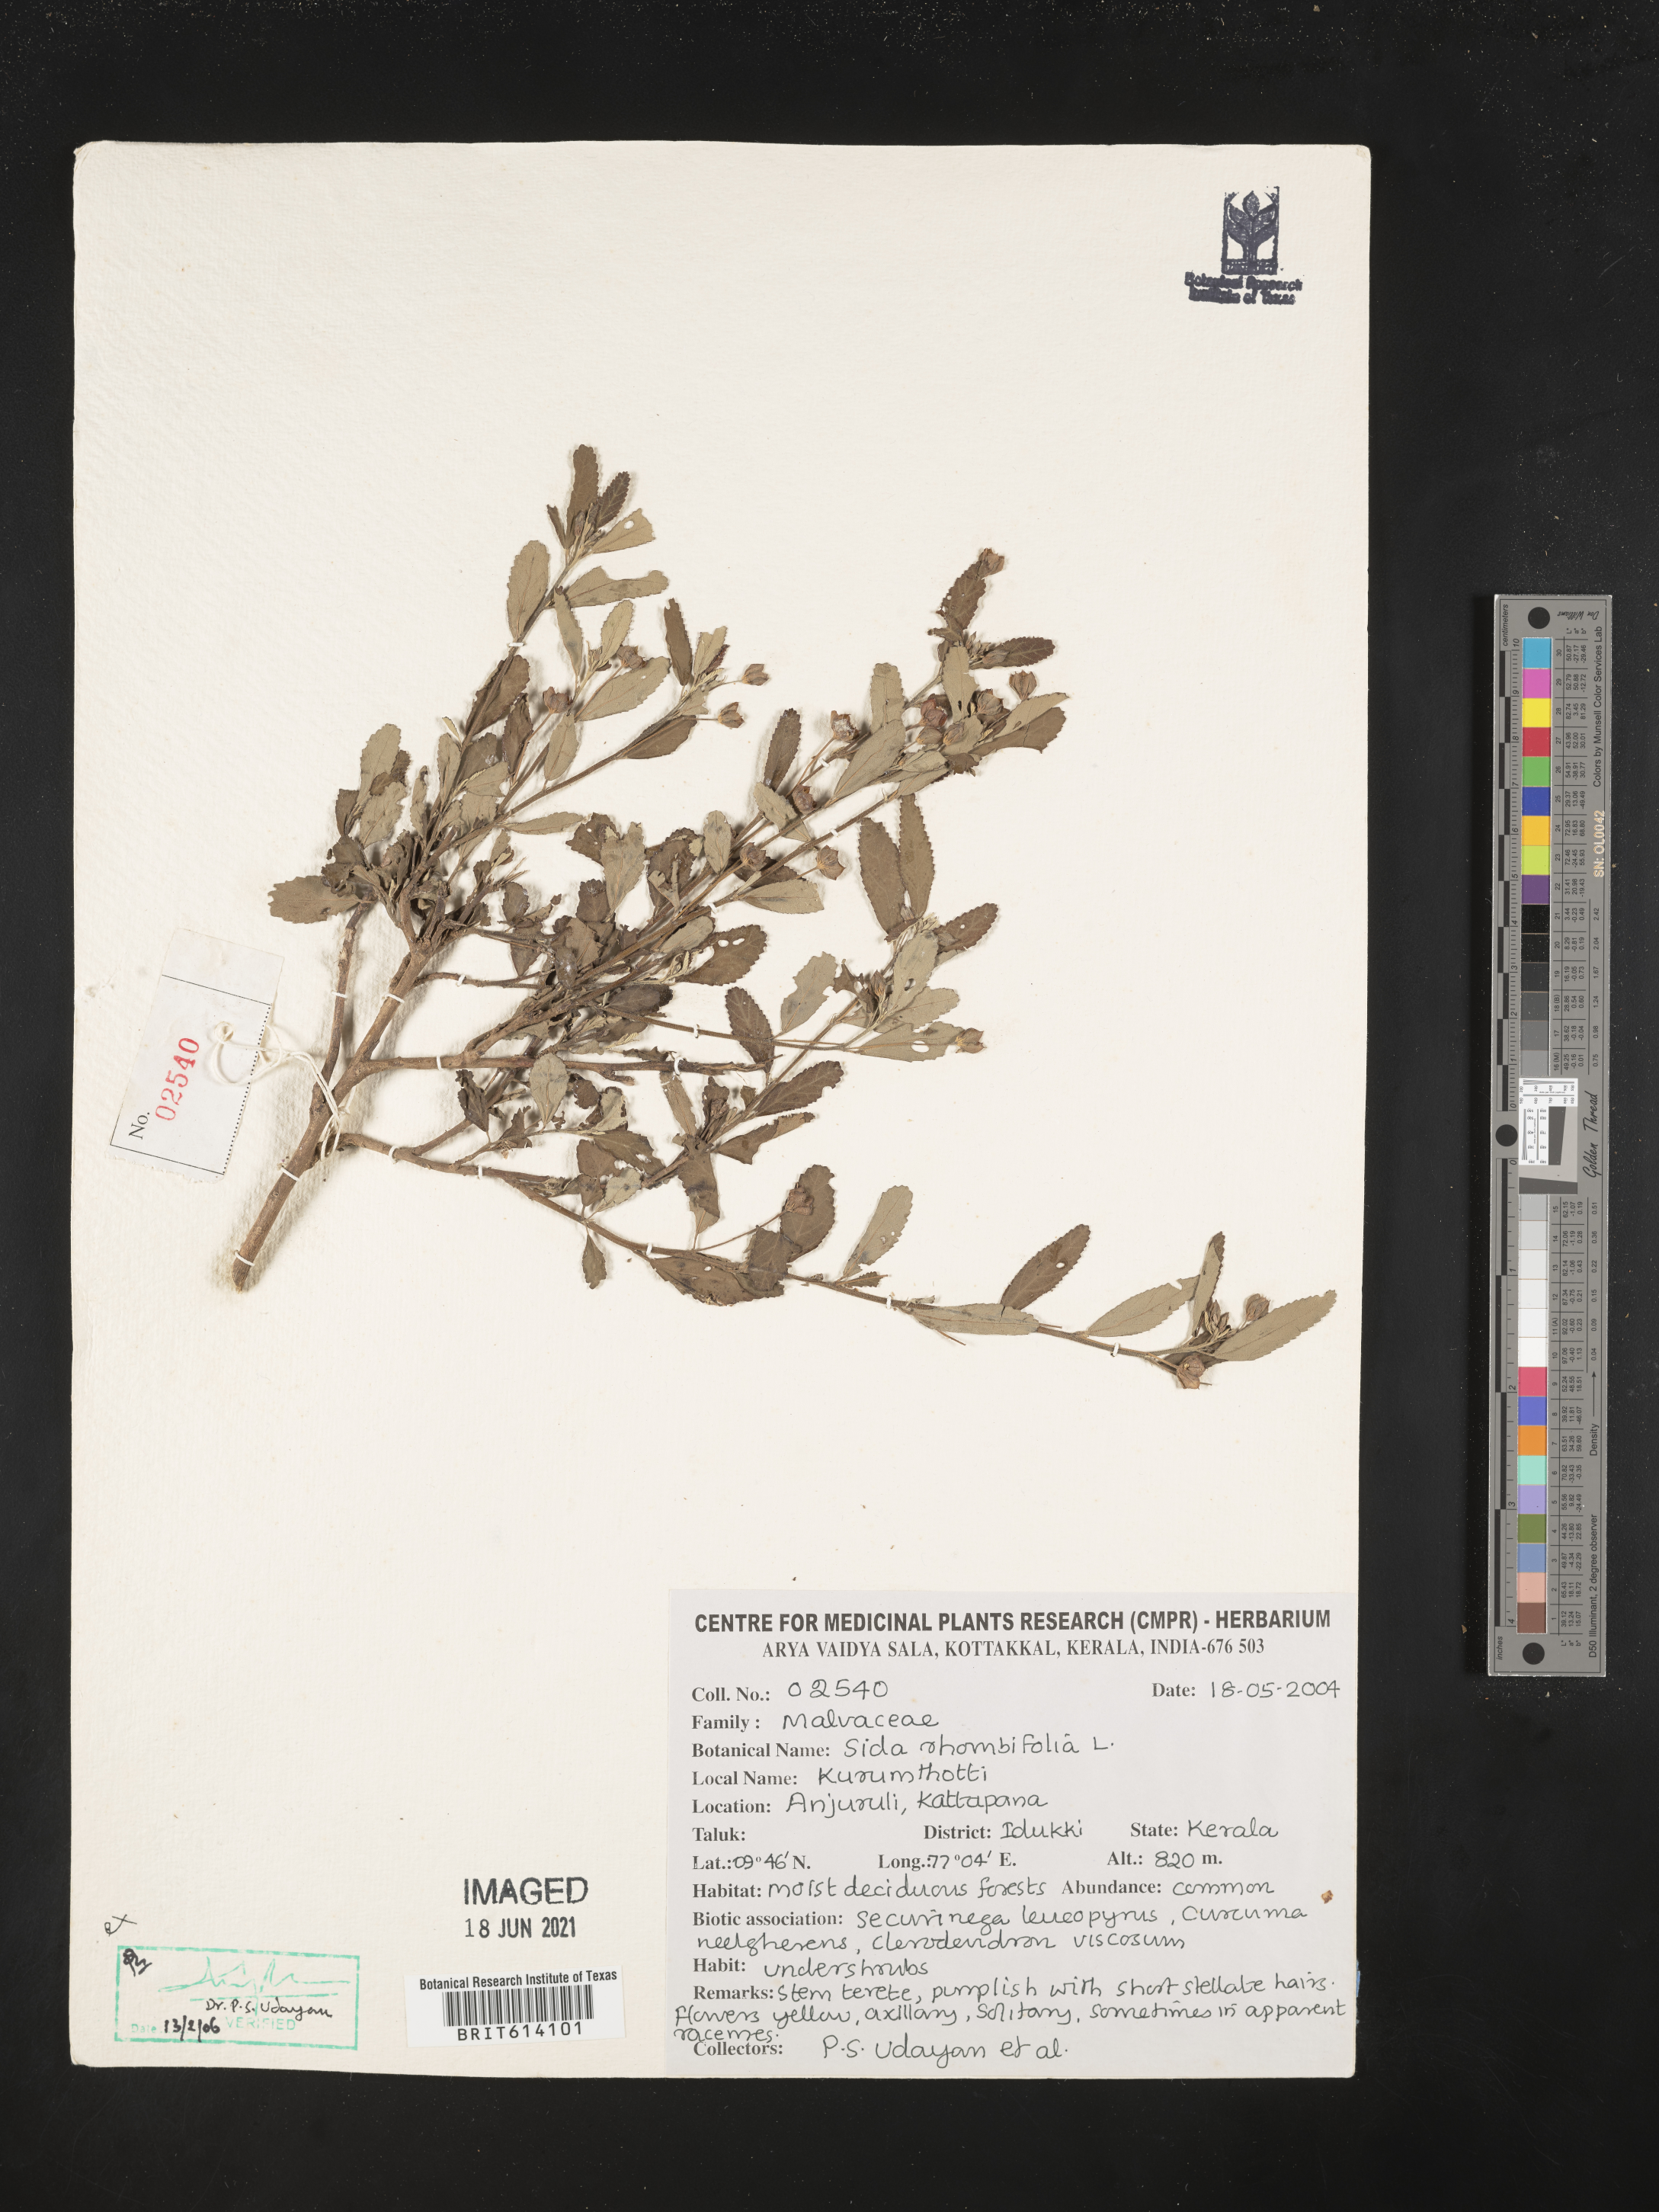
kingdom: Plantae
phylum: Tracheophyta
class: Magnoliopsida
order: Malvales
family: Malvaceae
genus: Sida
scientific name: Sida rhombifolia
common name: Queensland-hemp
